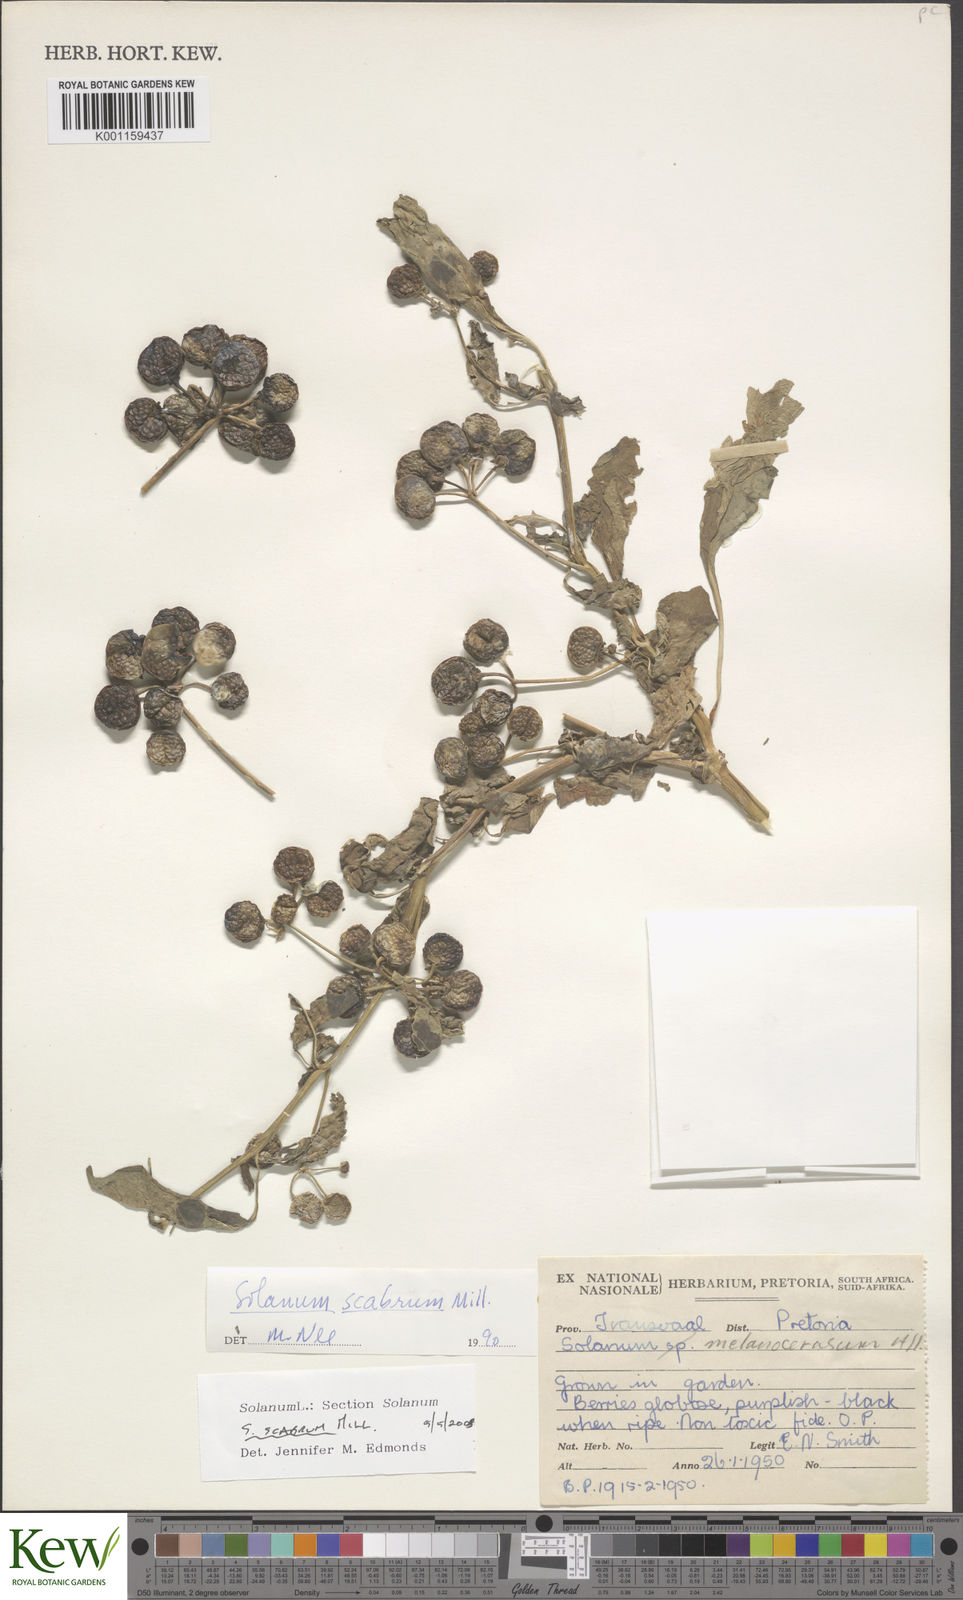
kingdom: Plantae
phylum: Tracheophyta
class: Magnoliopsida
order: Solanales
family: Solanaceae
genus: Solanum
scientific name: Solanum scabrum
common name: Garden-huckleberry
